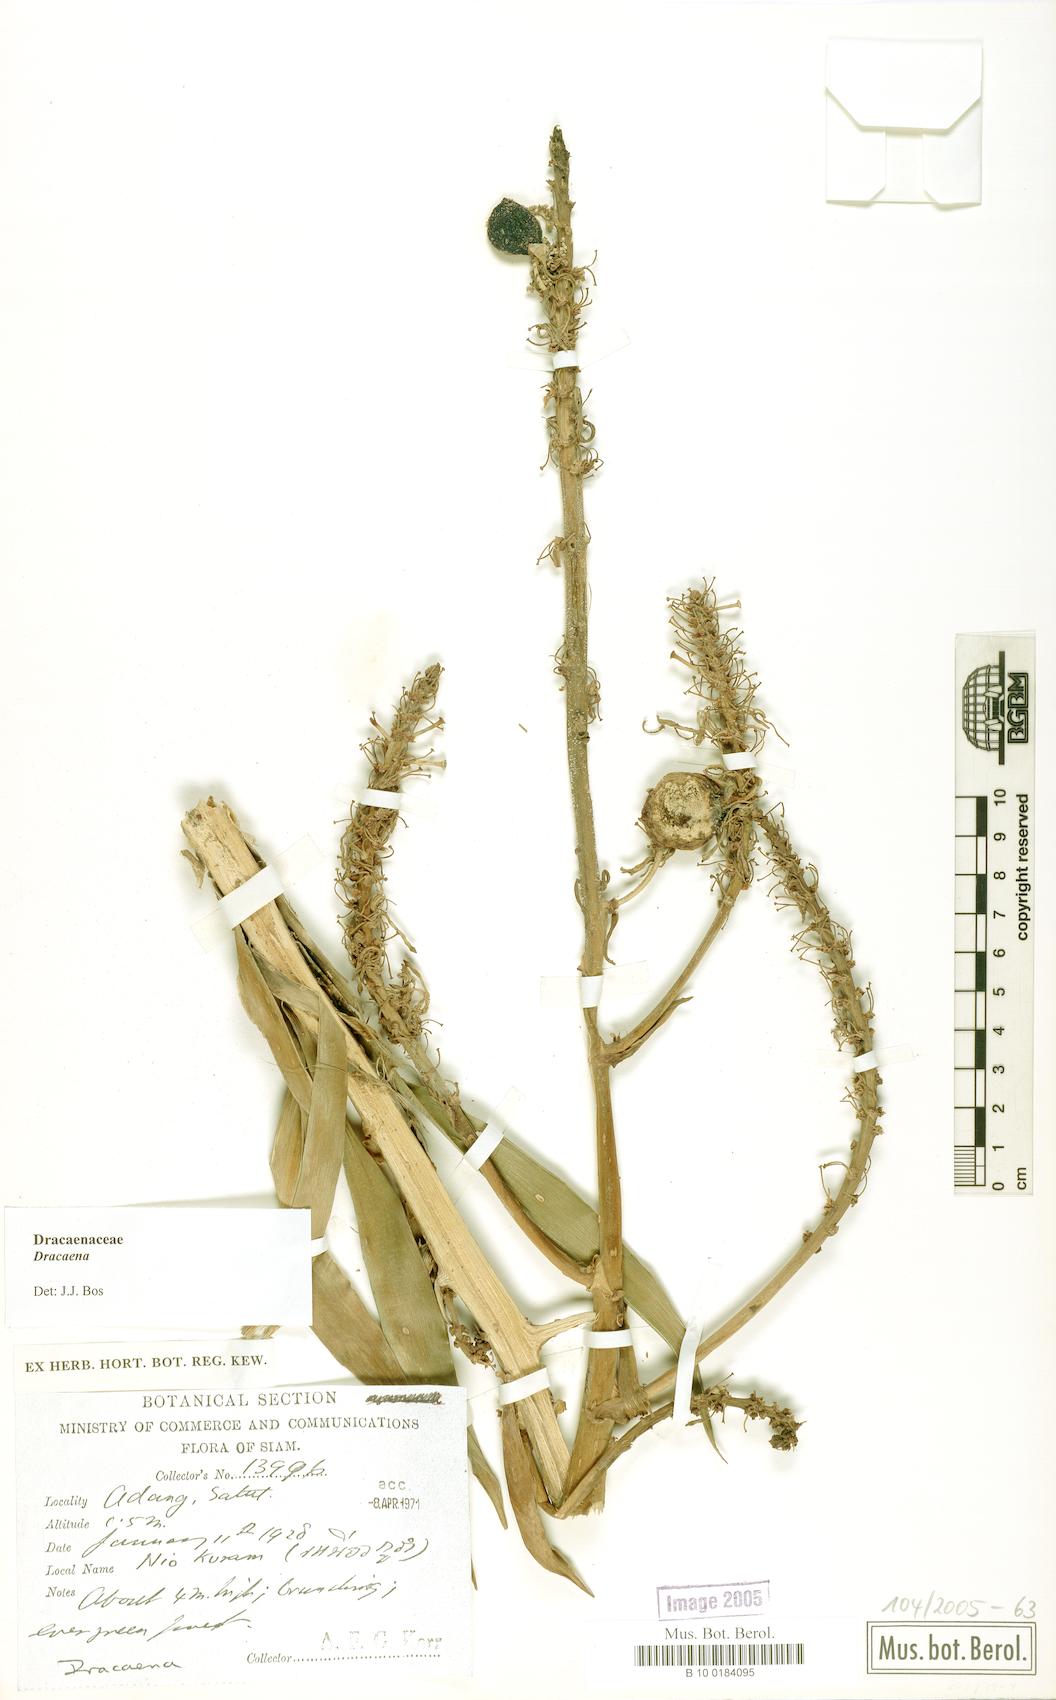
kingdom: Plantae
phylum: Tracheophyta
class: Liliopsida
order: Asparagales
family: Asparagaceae
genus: Dracaena
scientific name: Dracaena
